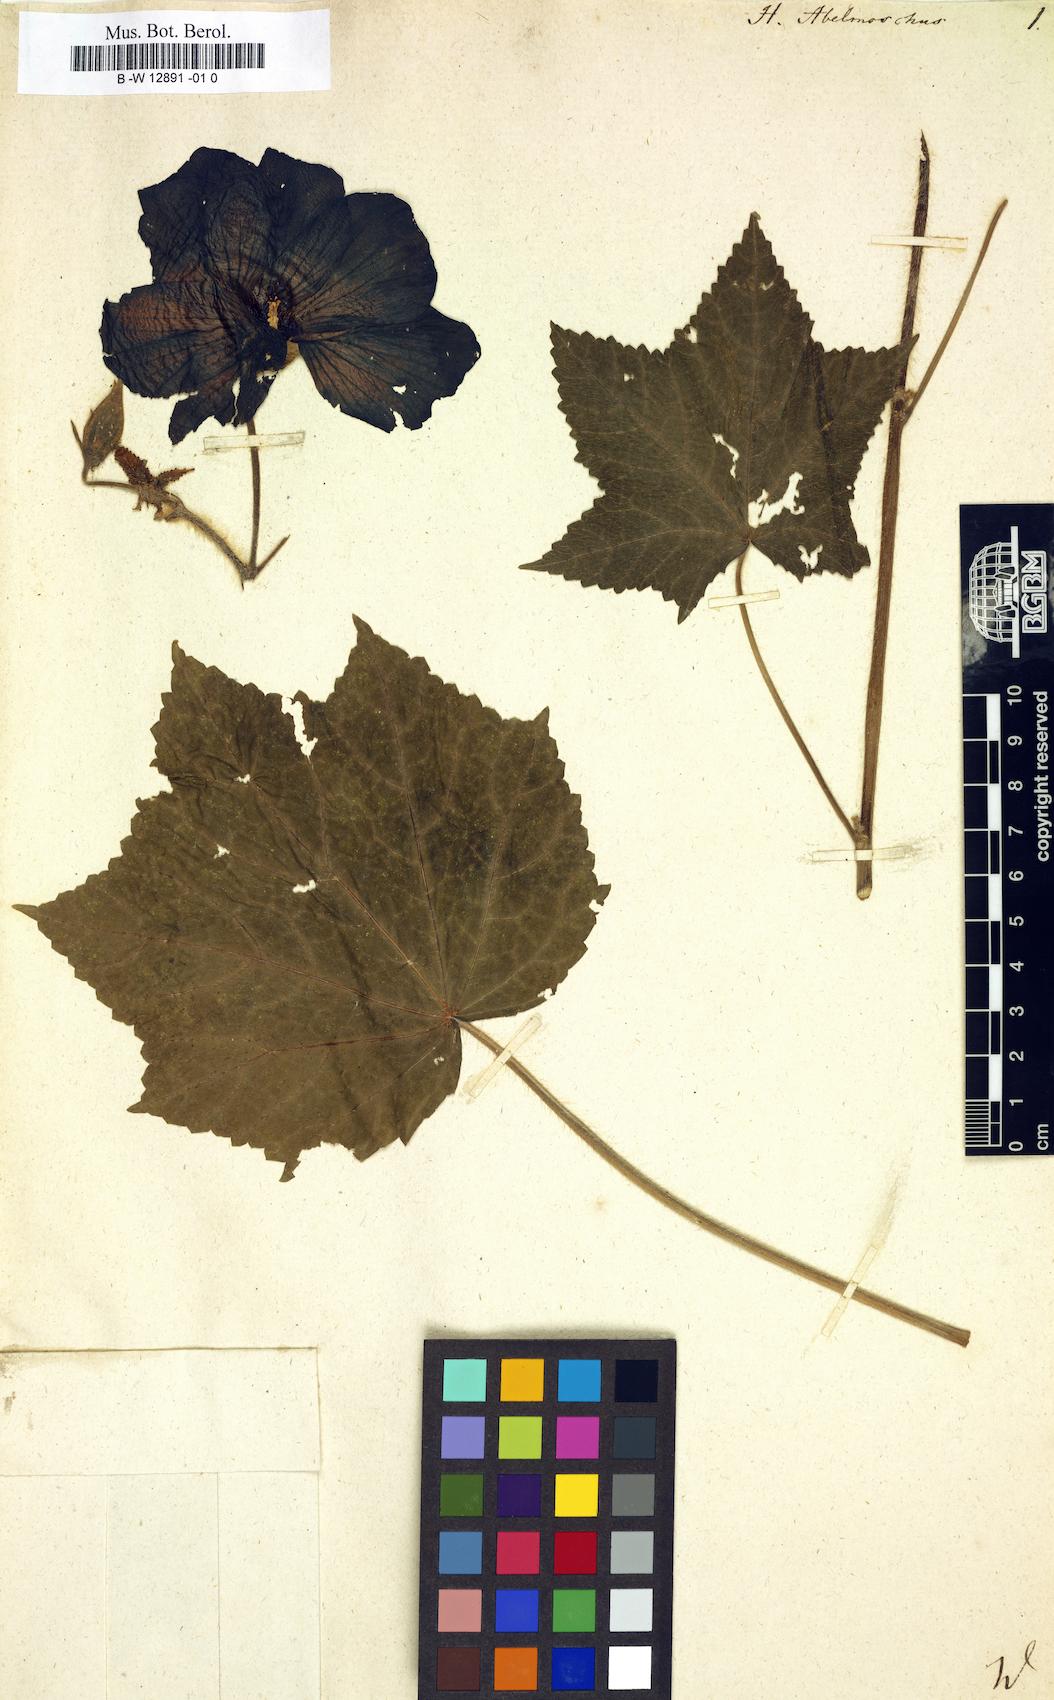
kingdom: Plantae
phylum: Tracheophyta
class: Magnoliopsida
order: Malvales
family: Malvaceae
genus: Abelmoschus
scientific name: Abelmoschus moschatus
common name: Musk okra
